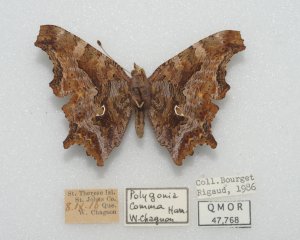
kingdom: Animalia
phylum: Arthropoda
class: Insecta
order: Lepidoptera
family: Nymphalidae
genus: Polygonia
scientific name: Polygonia comma
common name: Eastern Comma
